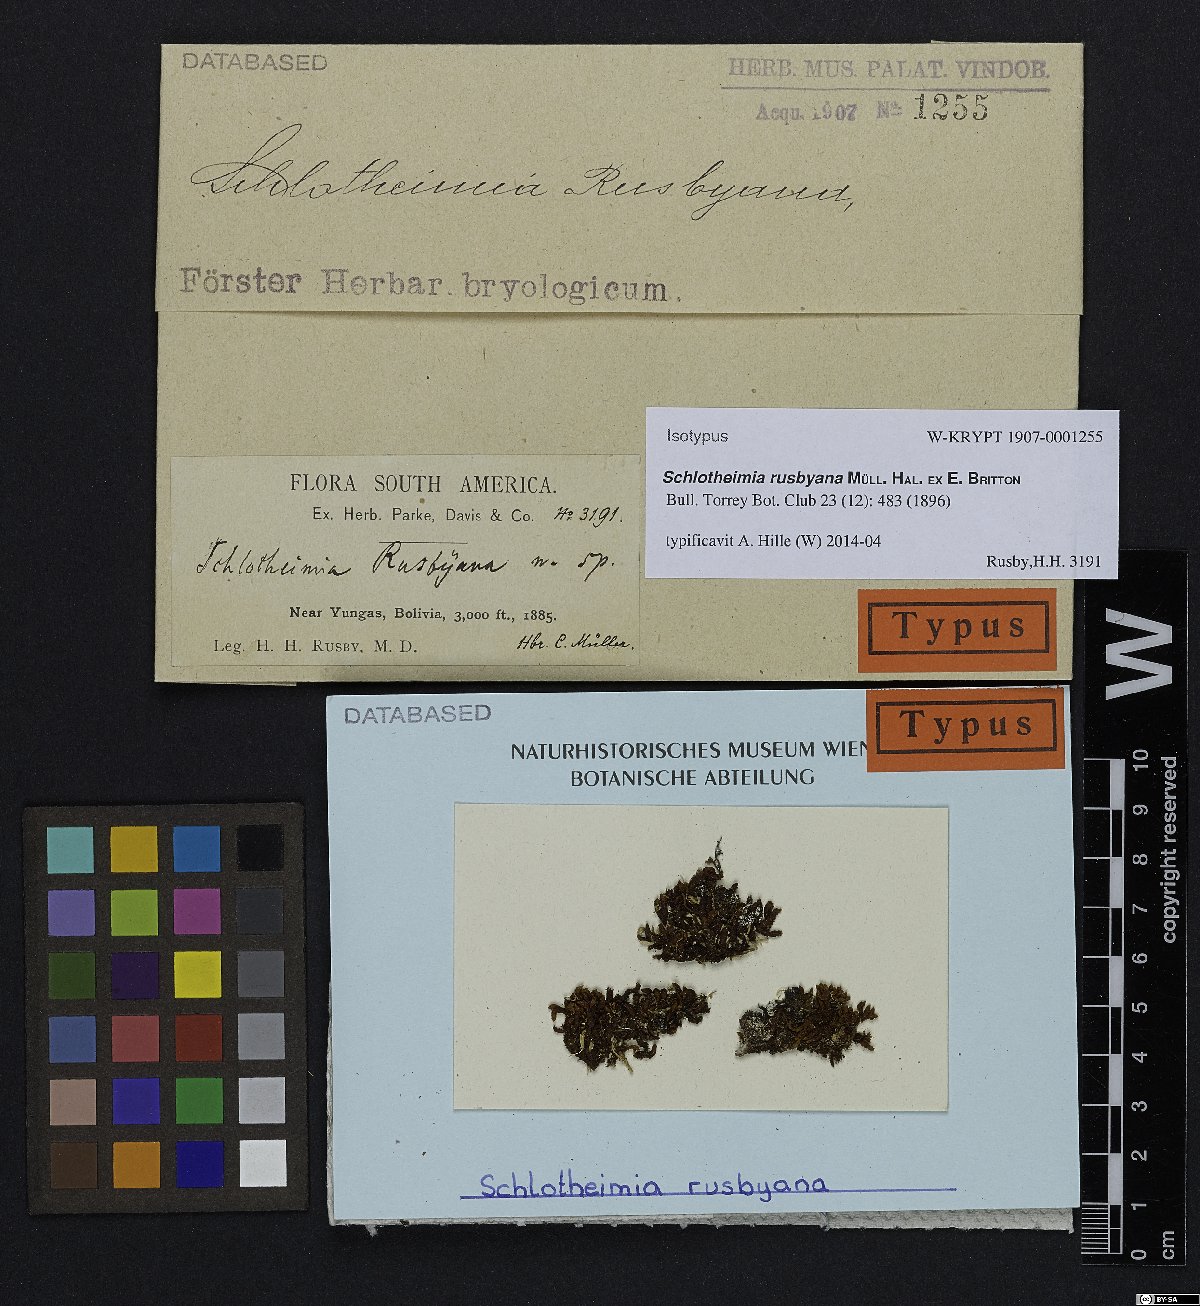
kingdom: Plantae
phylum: Bryophyta
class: Bryopsida
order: Orthotrichales
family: Orthotrichaceae
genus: Schlotheimia
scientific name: Schlotheimia rusbyana
